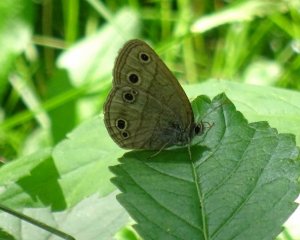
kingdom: Animalia
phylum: Arthropoda
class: Insecta
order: Lepidoptera
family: Nymphalidae
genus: Euptychia
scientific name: Euptychia cymela
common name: Little Wood Satyr
